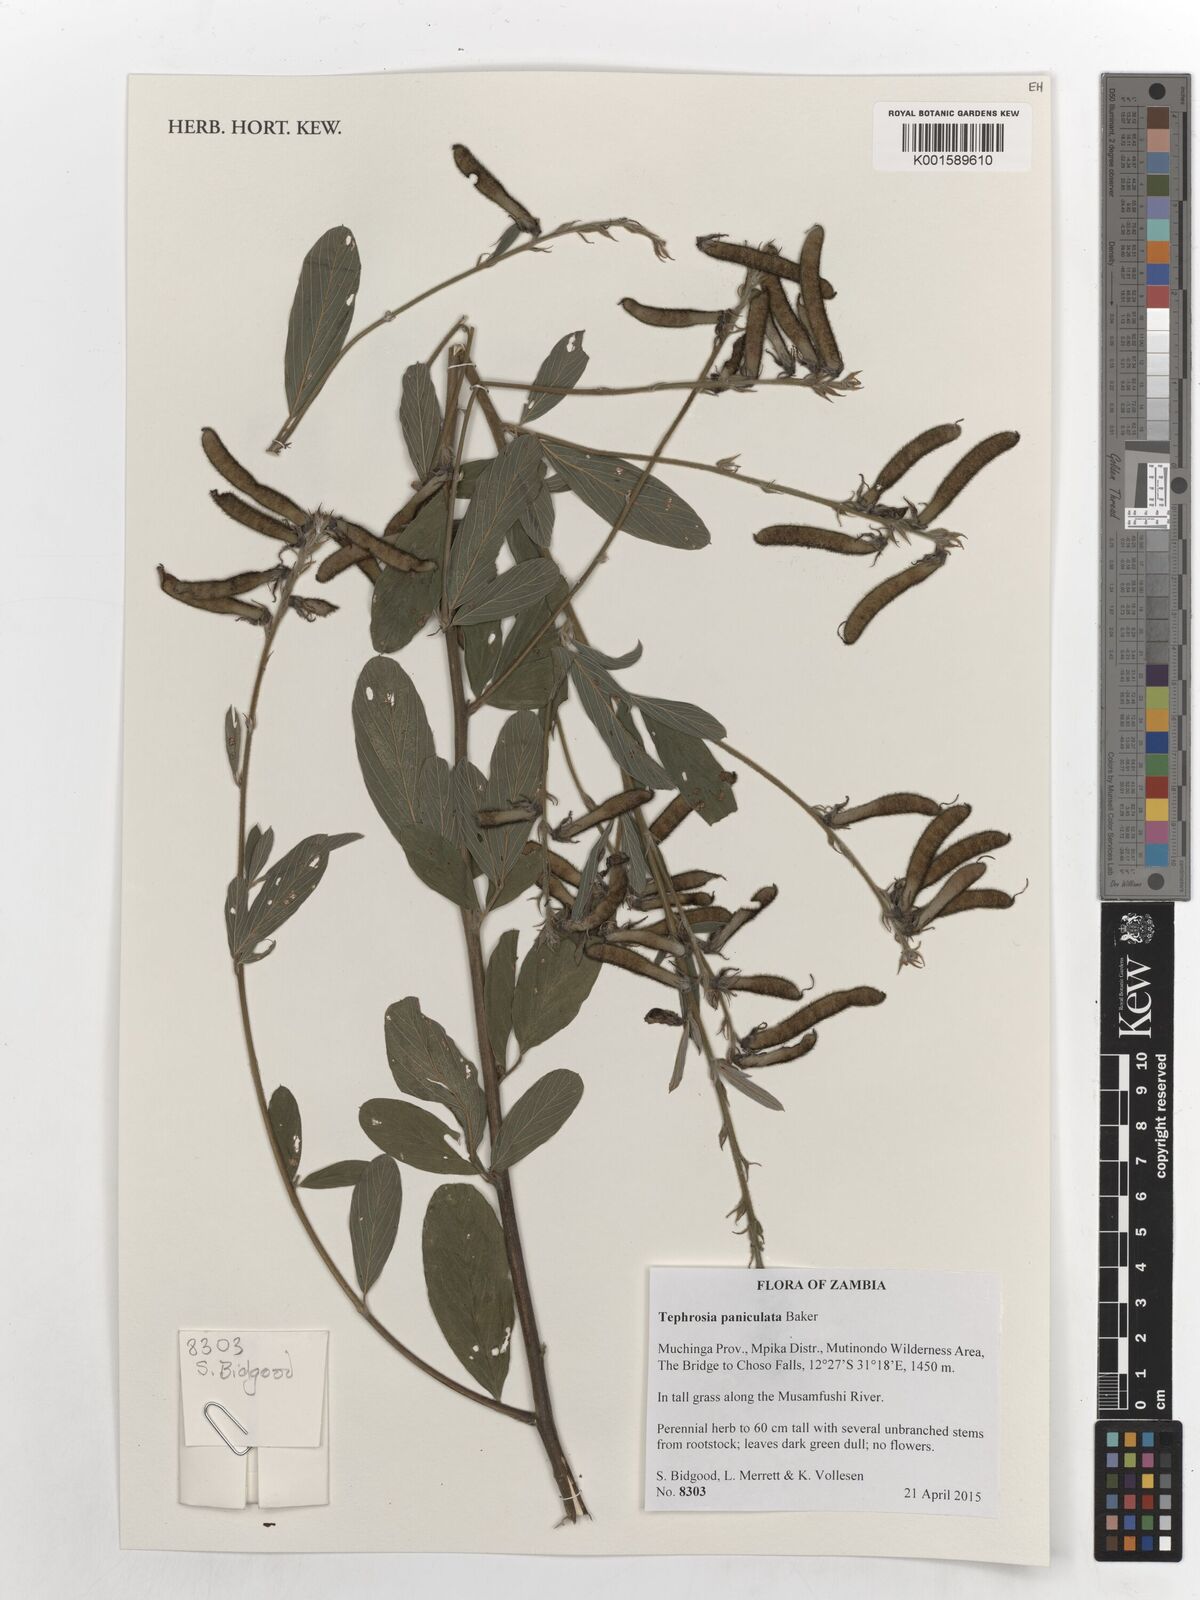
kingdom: Plantae
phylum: Tracheophyta
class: Magnoliopsida
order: Fabales
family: Fabaceae
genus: Tephrosia
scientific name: Tephrosia paniculata
